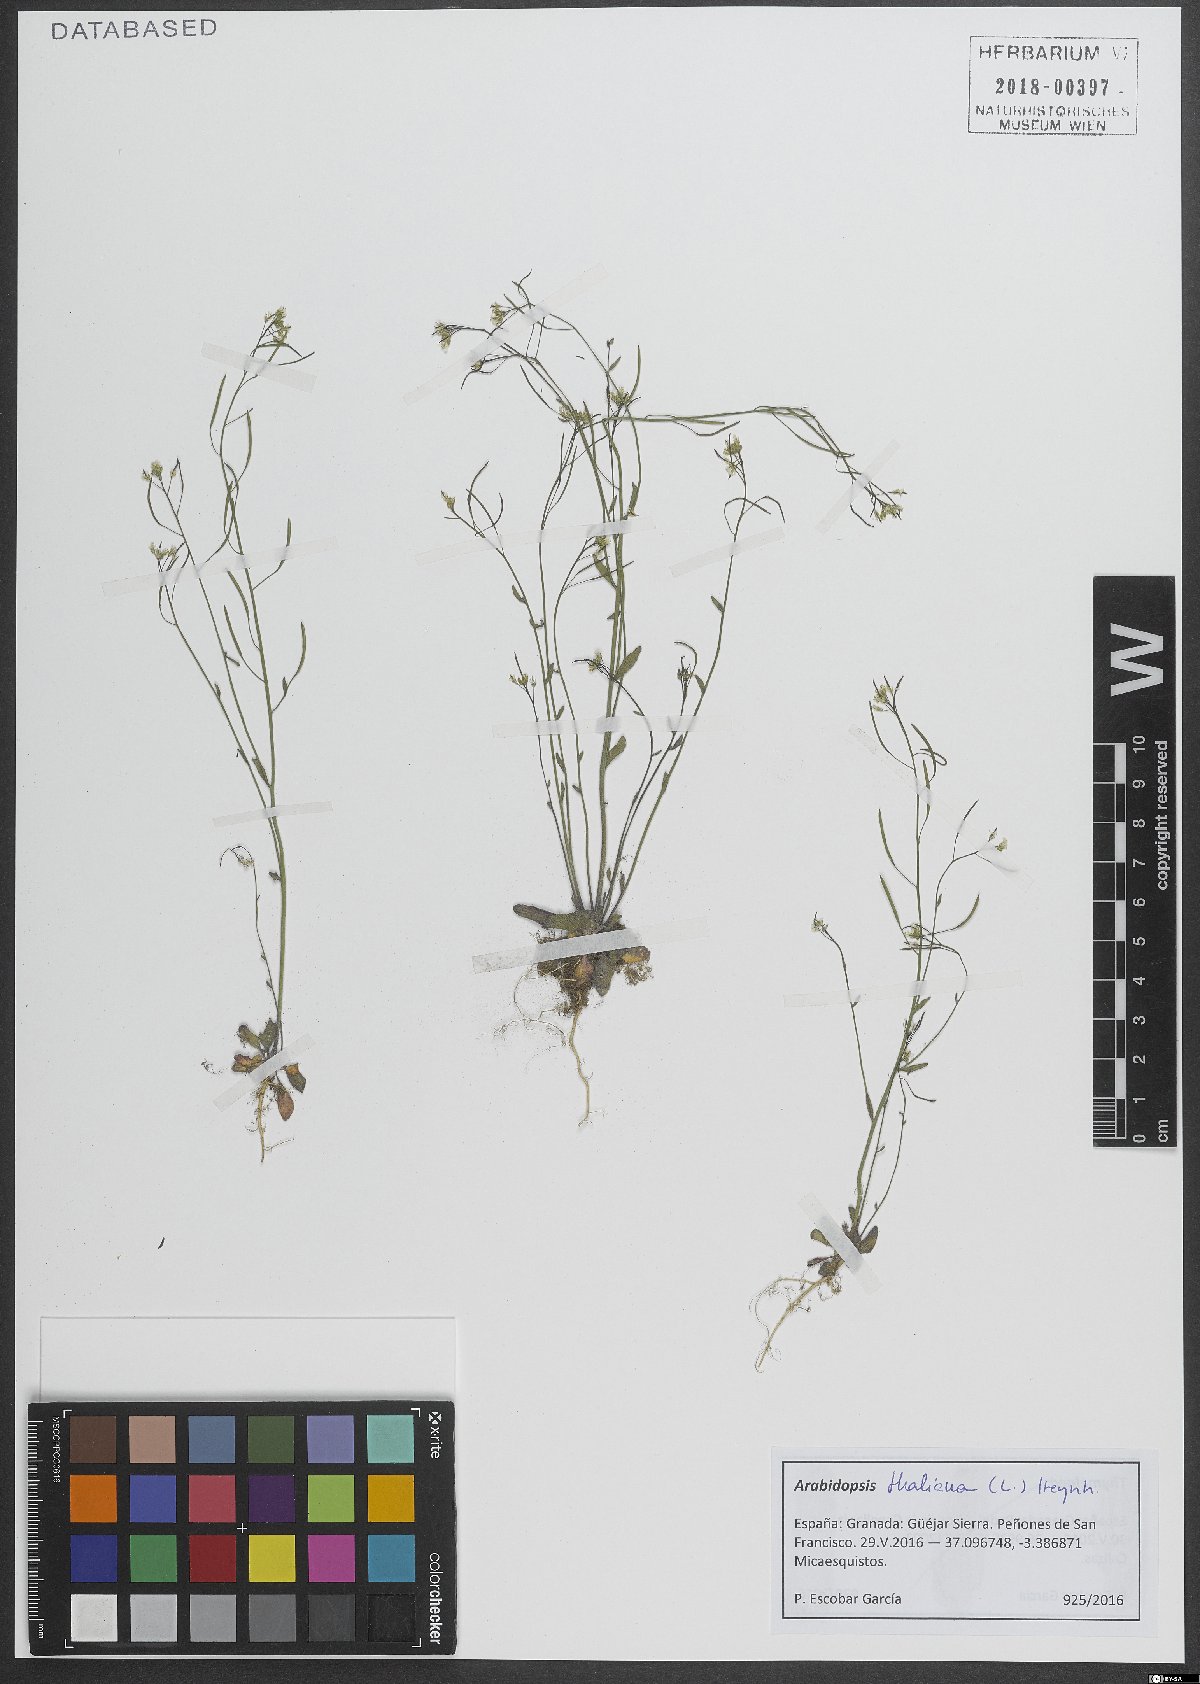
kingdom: Plantae
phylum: Tracheophyta
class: Magnoliopsida
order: Brassicales
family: Brassicaceae
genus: Arabidopsis
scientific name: Arabidopsis thaliana
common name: Thale cress
